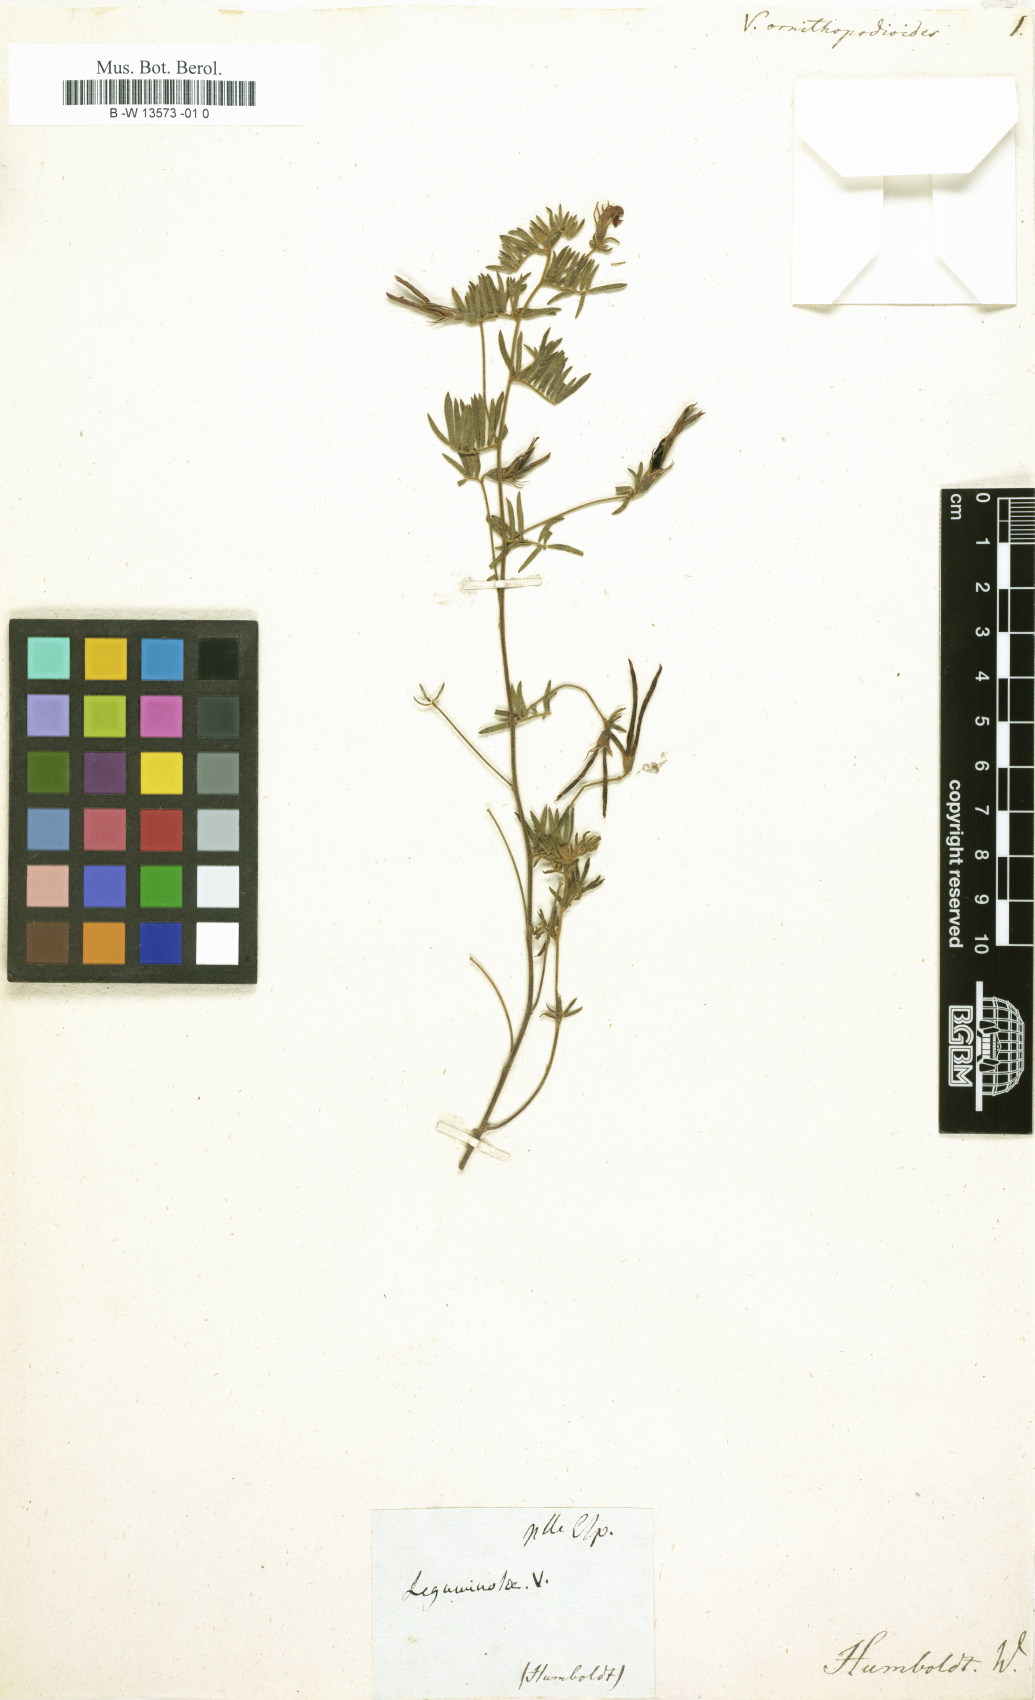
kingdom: Plantae
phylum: Tracheophyta
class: Magnoliopsida
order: Fabales
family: Fabaceae
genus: Vicia
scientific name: Vicia
